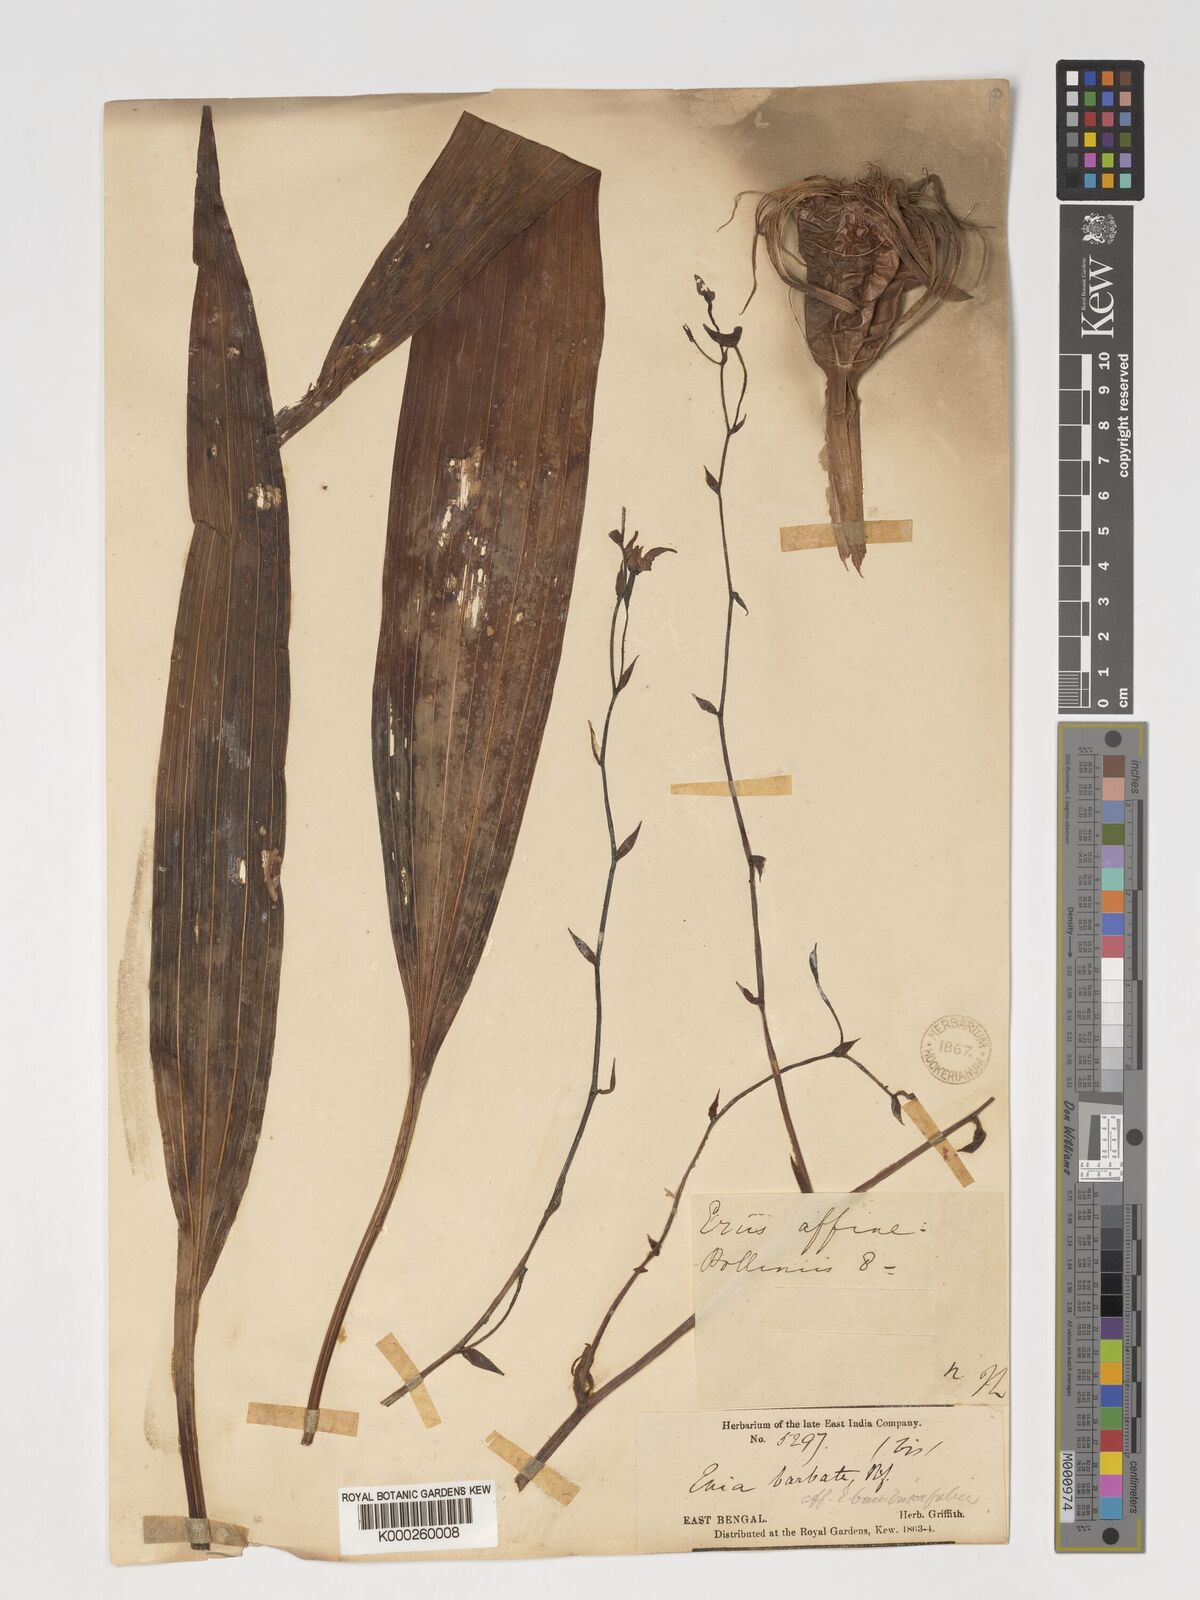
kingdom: Plantae
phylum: Tracheophyta
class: Liliopsida
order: Asparagales
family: Orchidaceae
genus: Eriodes
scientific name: Eriodes barbata
